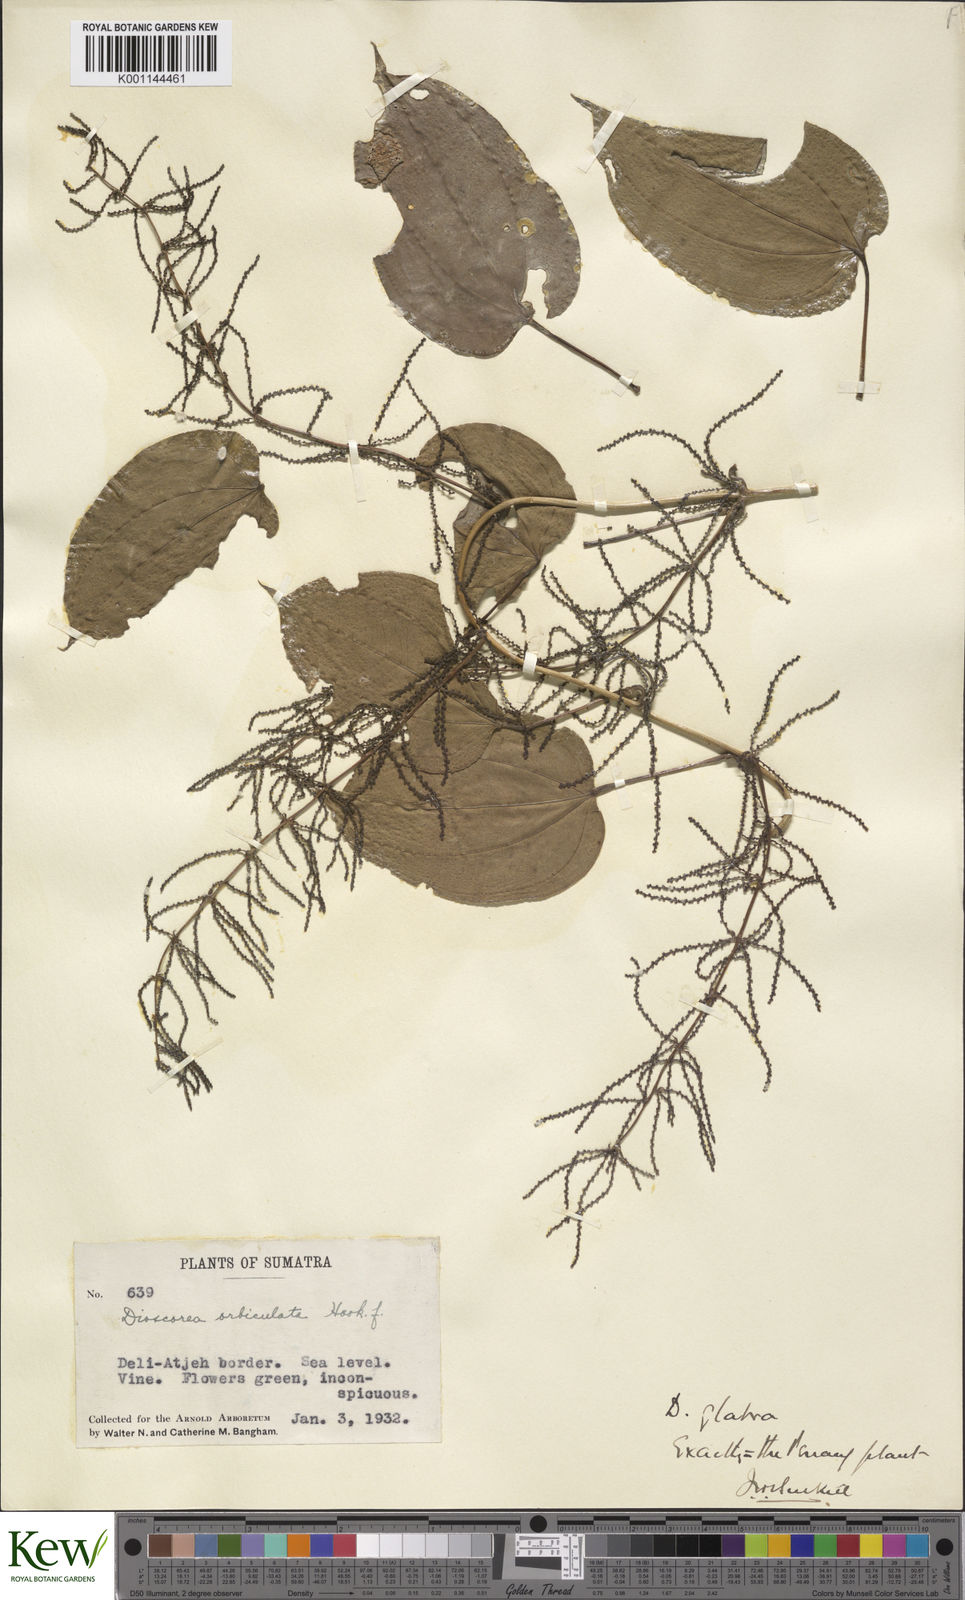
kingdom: Plantae
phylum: Tracheophyta
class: Liliopsida
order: Dioscoreales
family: Dioscoreaceae
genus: Dioscorea
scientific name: Dioscorea glabra
